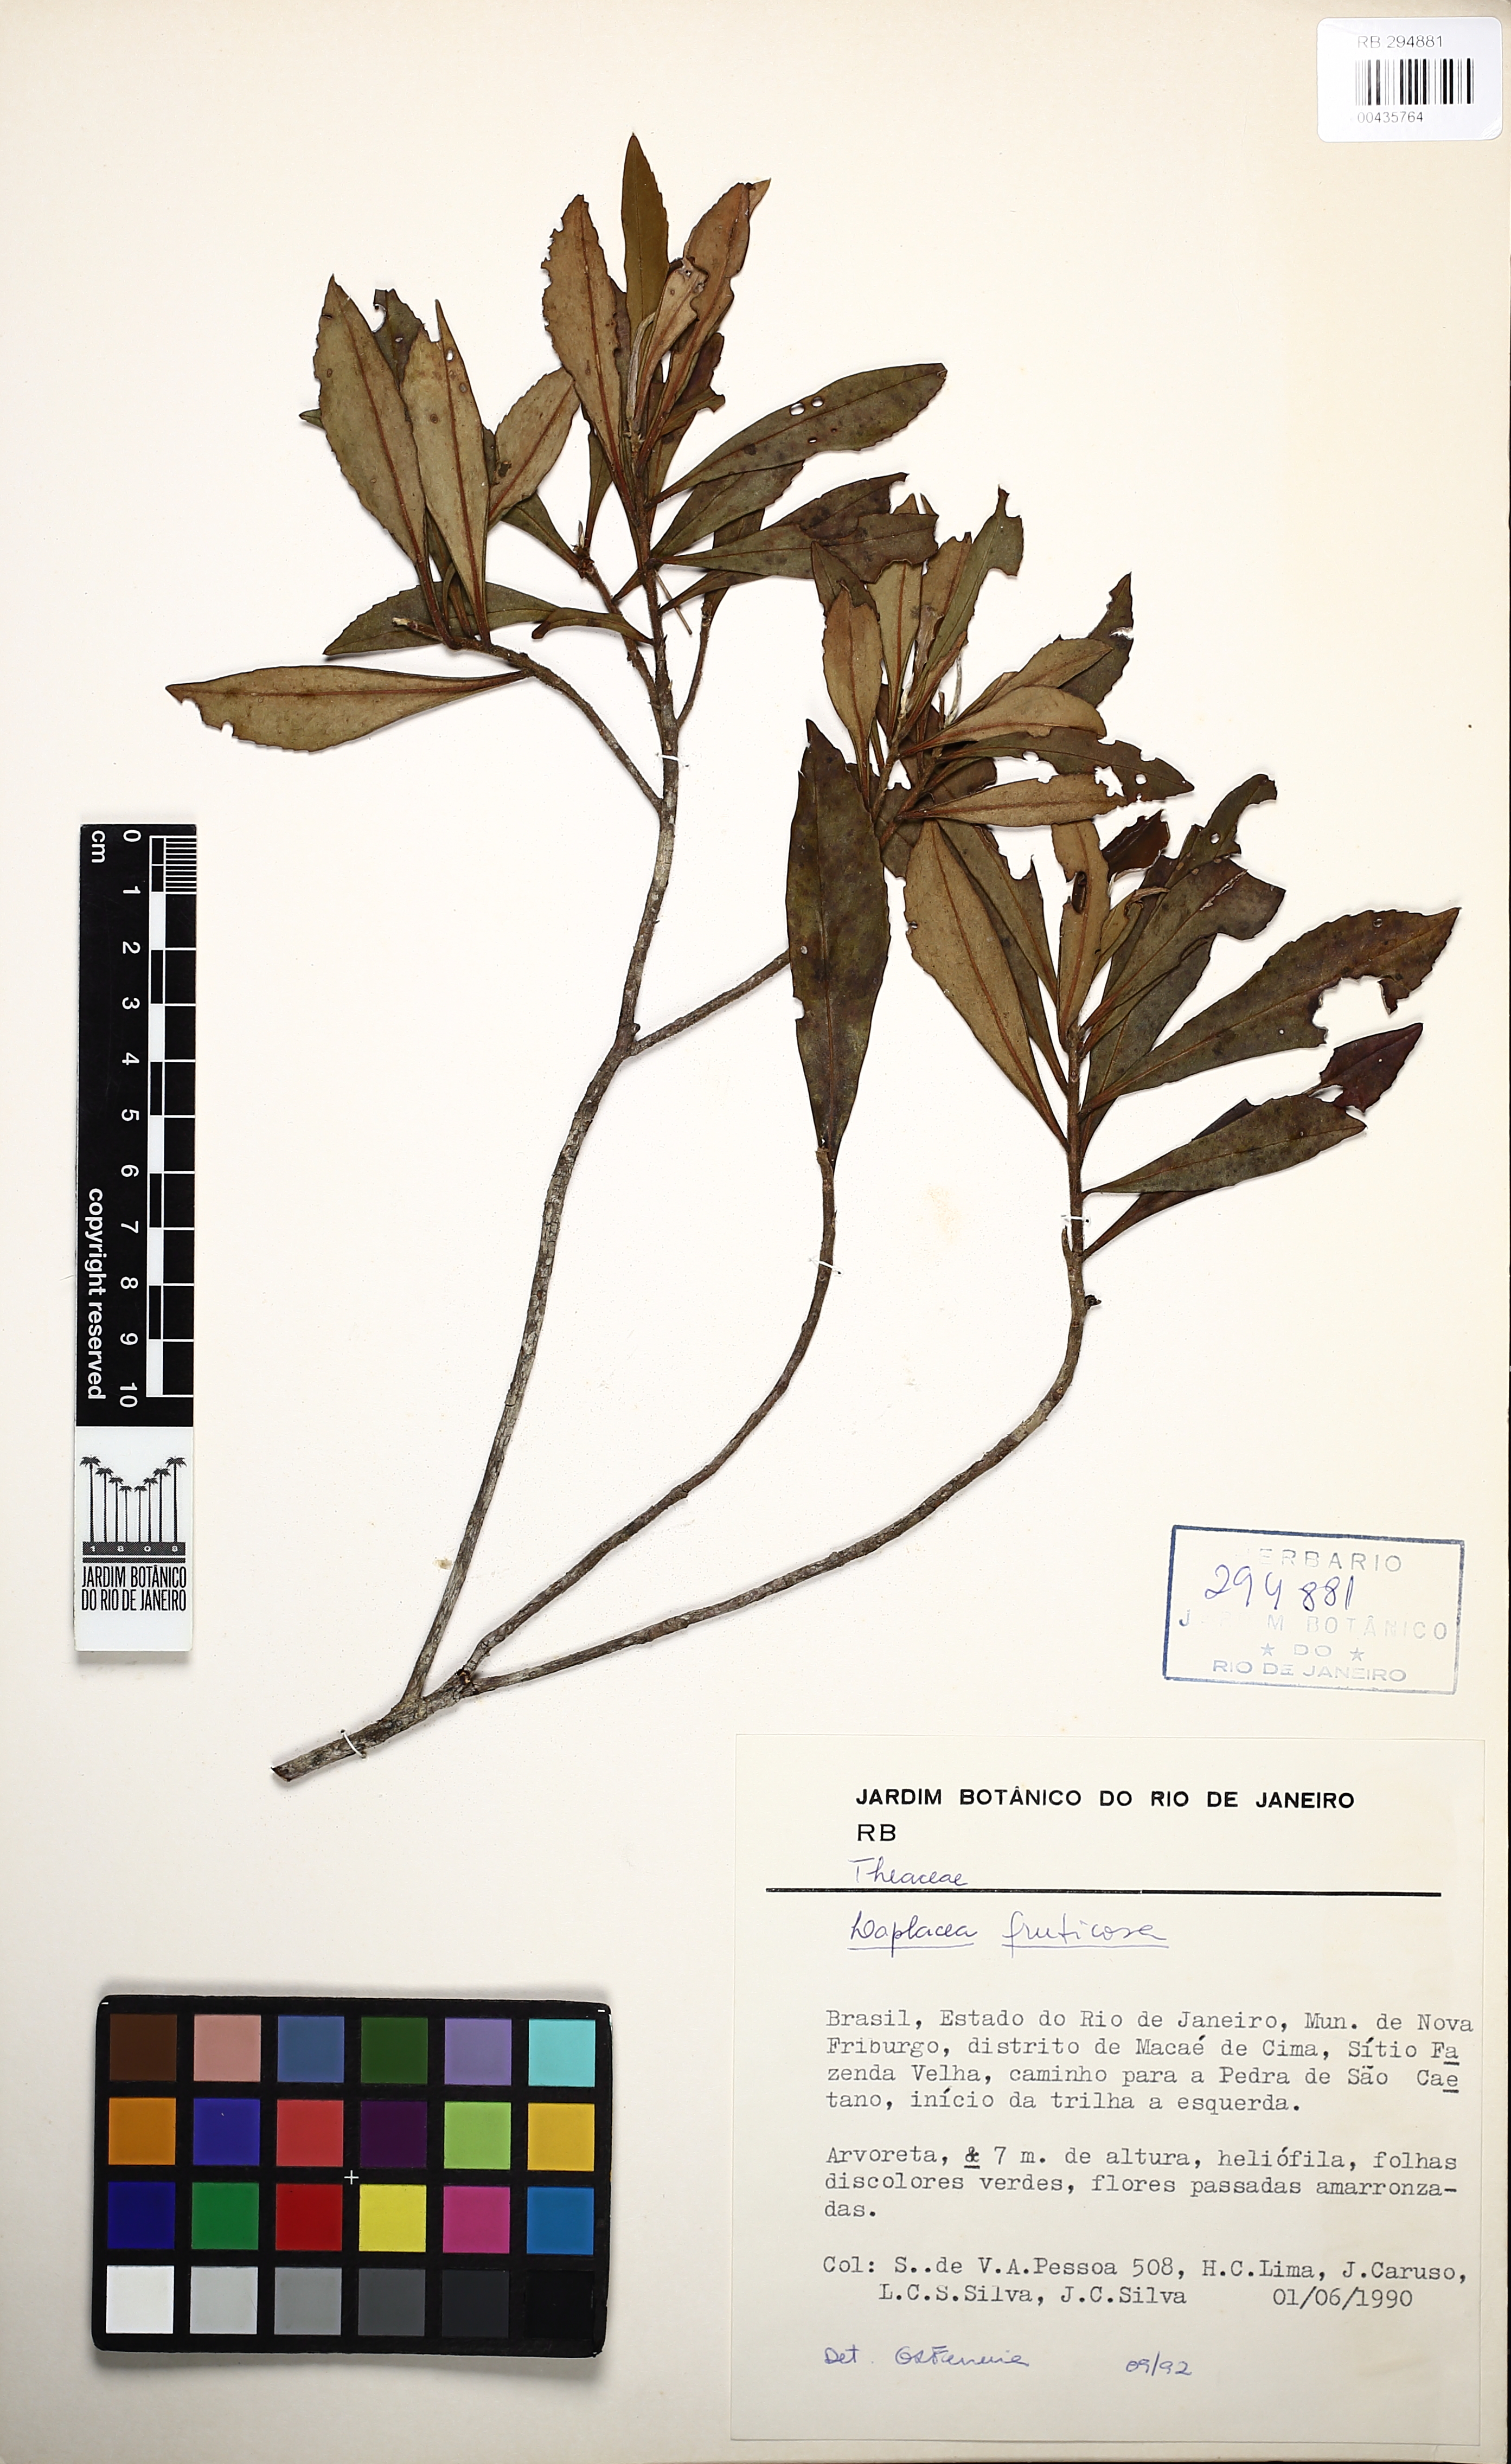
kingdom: Plantae
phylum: Tracheophyta
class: Magnoliopsida
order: Ericales
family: Theaceae
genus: Gordonia
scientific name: Gordonia fruticosa
